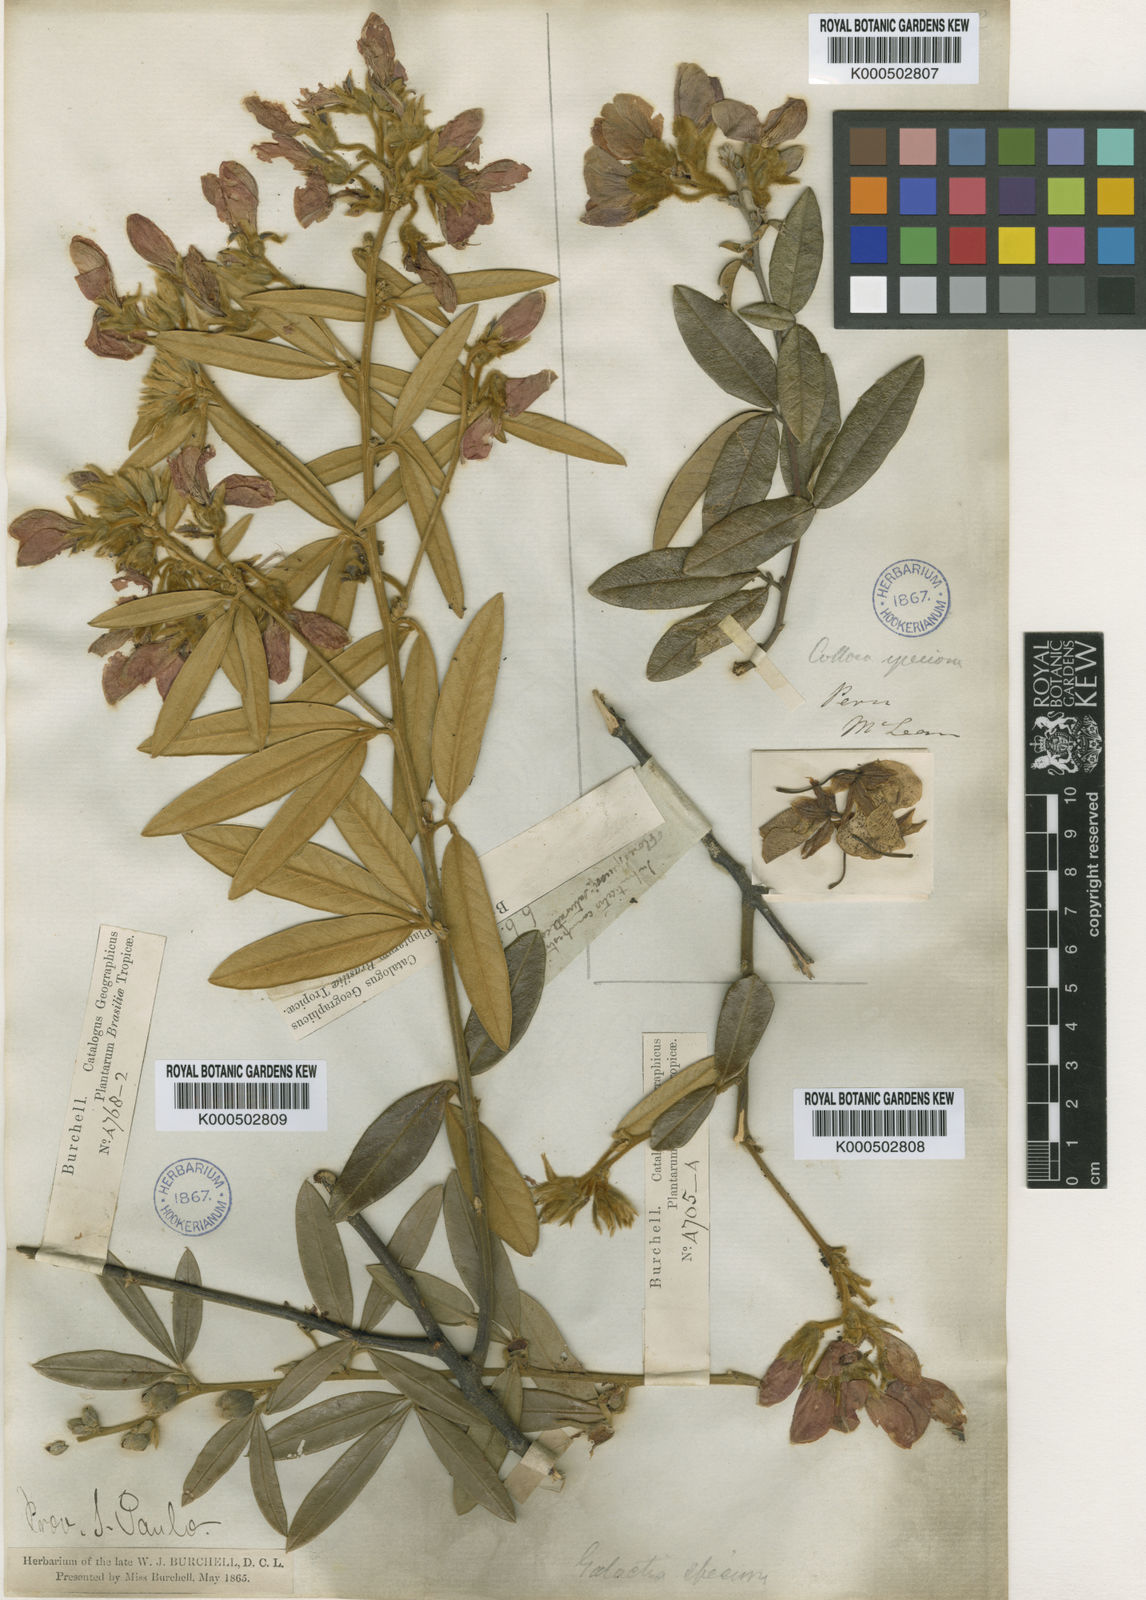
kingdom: Plantae
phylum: Tracheophyta
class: Magnoliopsida
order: Fabales
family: Fabaceae
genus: Collaea
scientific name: Collaea speciosa
